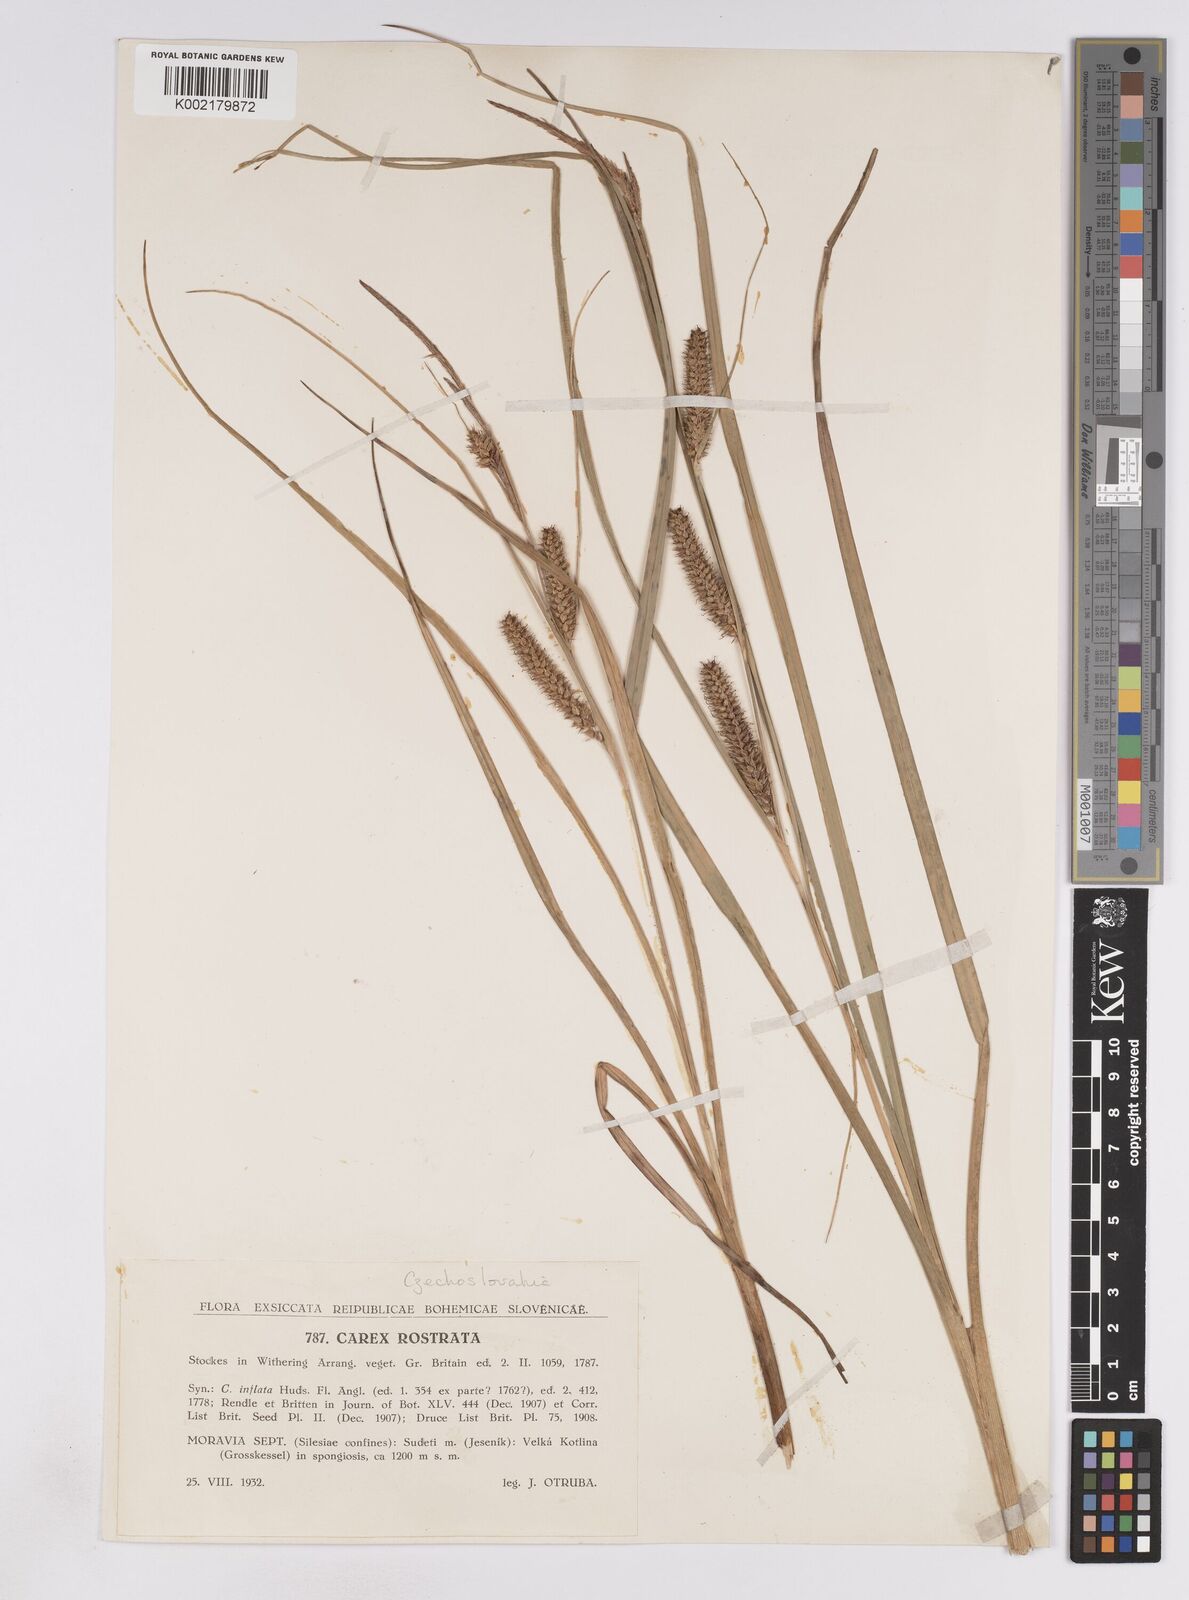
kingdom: Plantae
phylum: Tracheophyta
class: Liliopsida
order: Poales
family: Cyperaceae
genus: Carex
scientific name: Carex rostrata
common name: Bottle sedge
